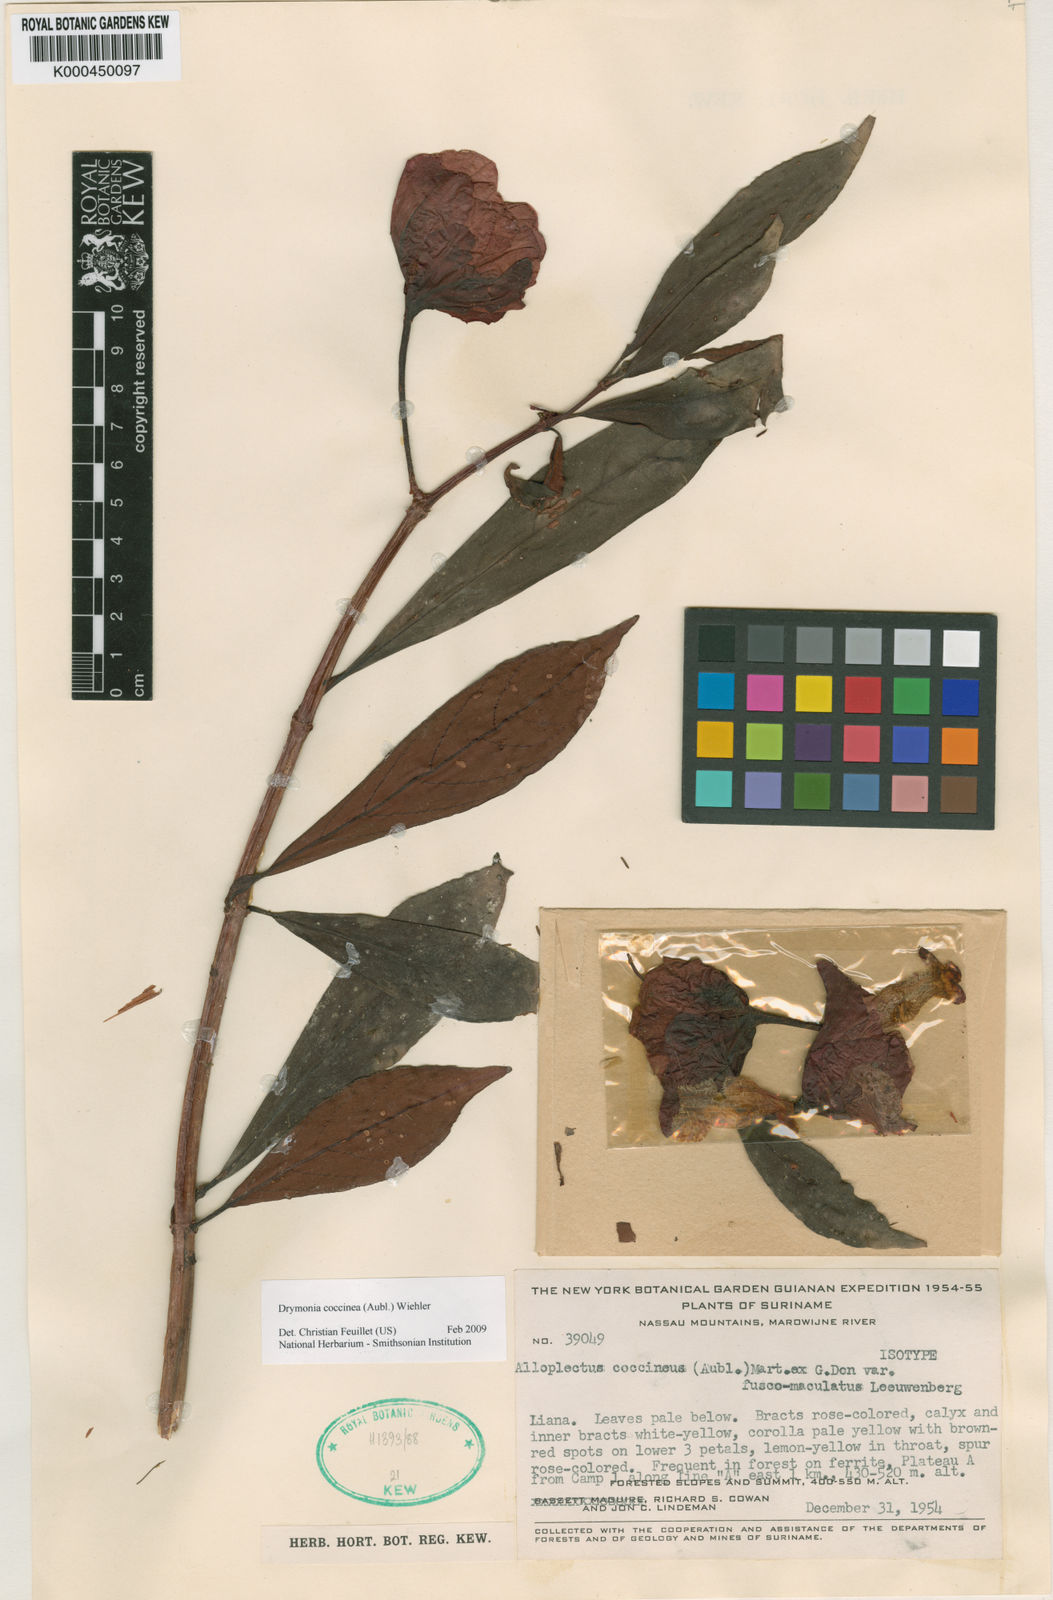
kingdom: Plantae
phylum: Tracheophyta
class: Magnoliopsida
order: Lamiales
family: Gesneriaceae
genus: Drymonia
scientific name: Drymonia coccinea
